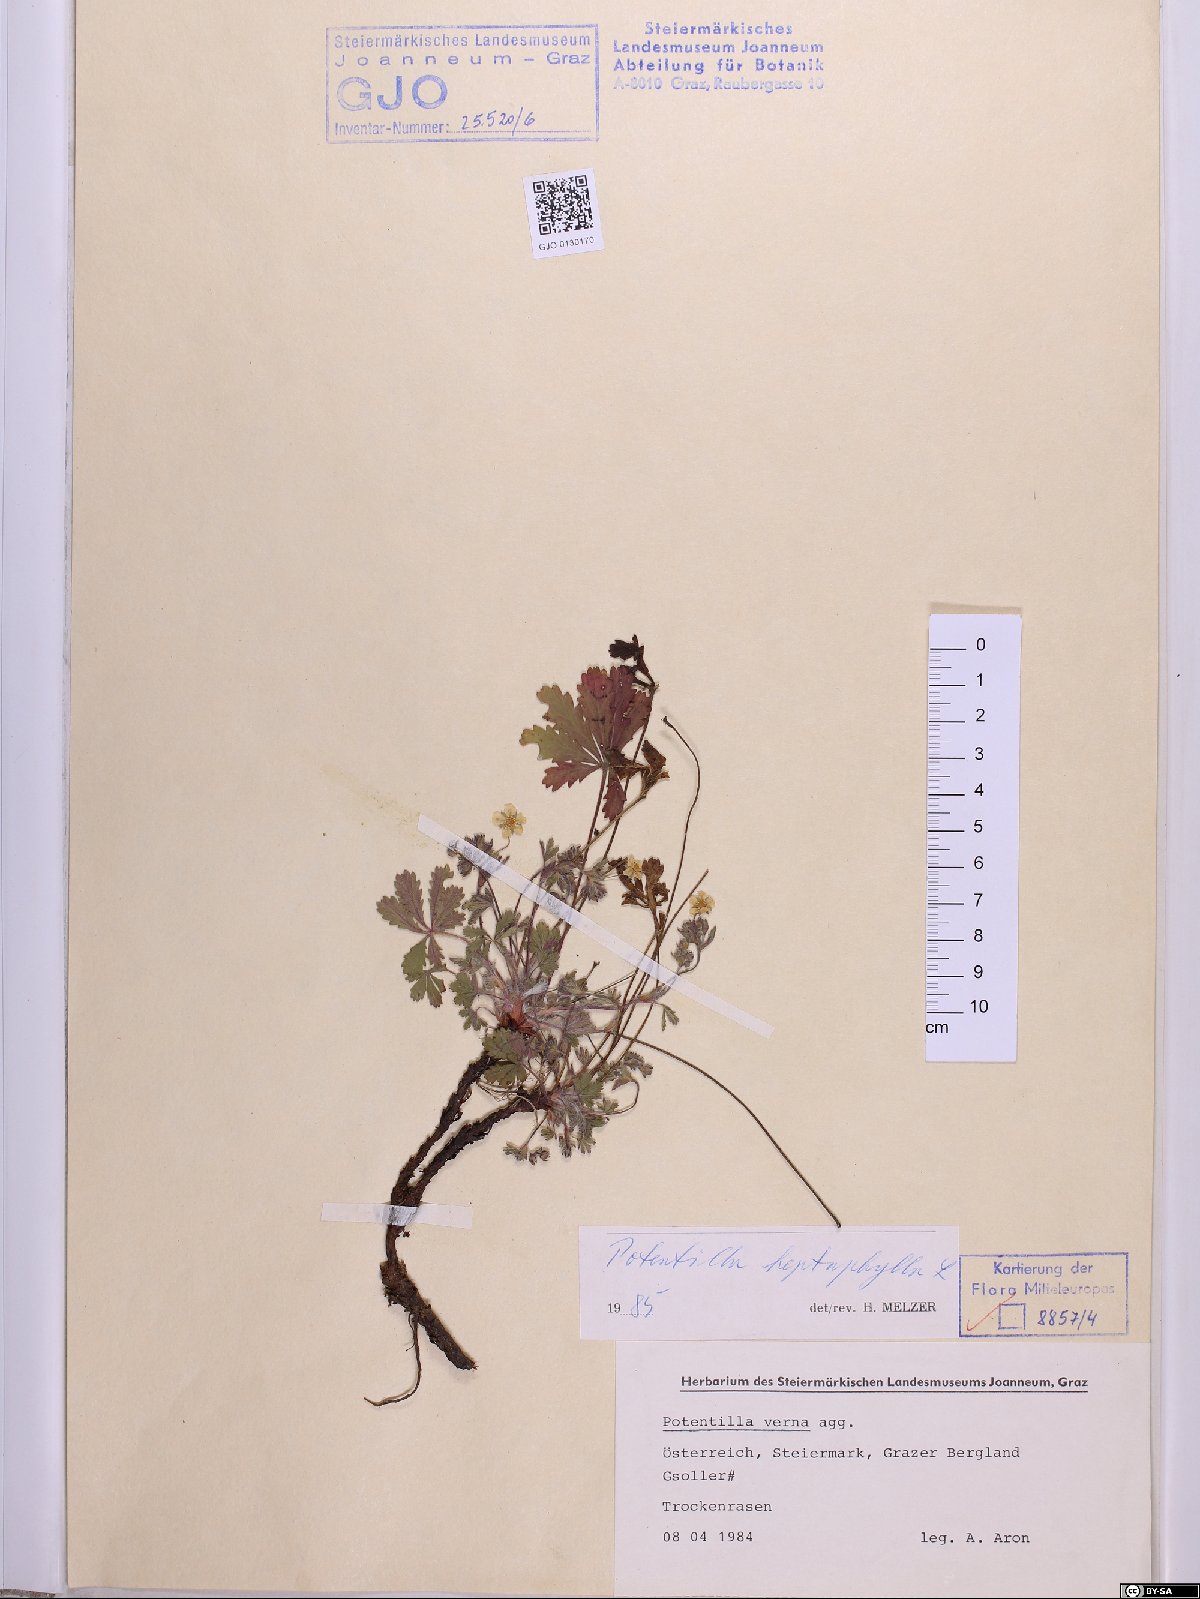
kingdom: Plantae
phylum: Tracheophyta
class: Magnoliopsida
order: Rosales
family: Rosaceae
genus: Potentilla
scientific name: Potentilla heptaphylla
